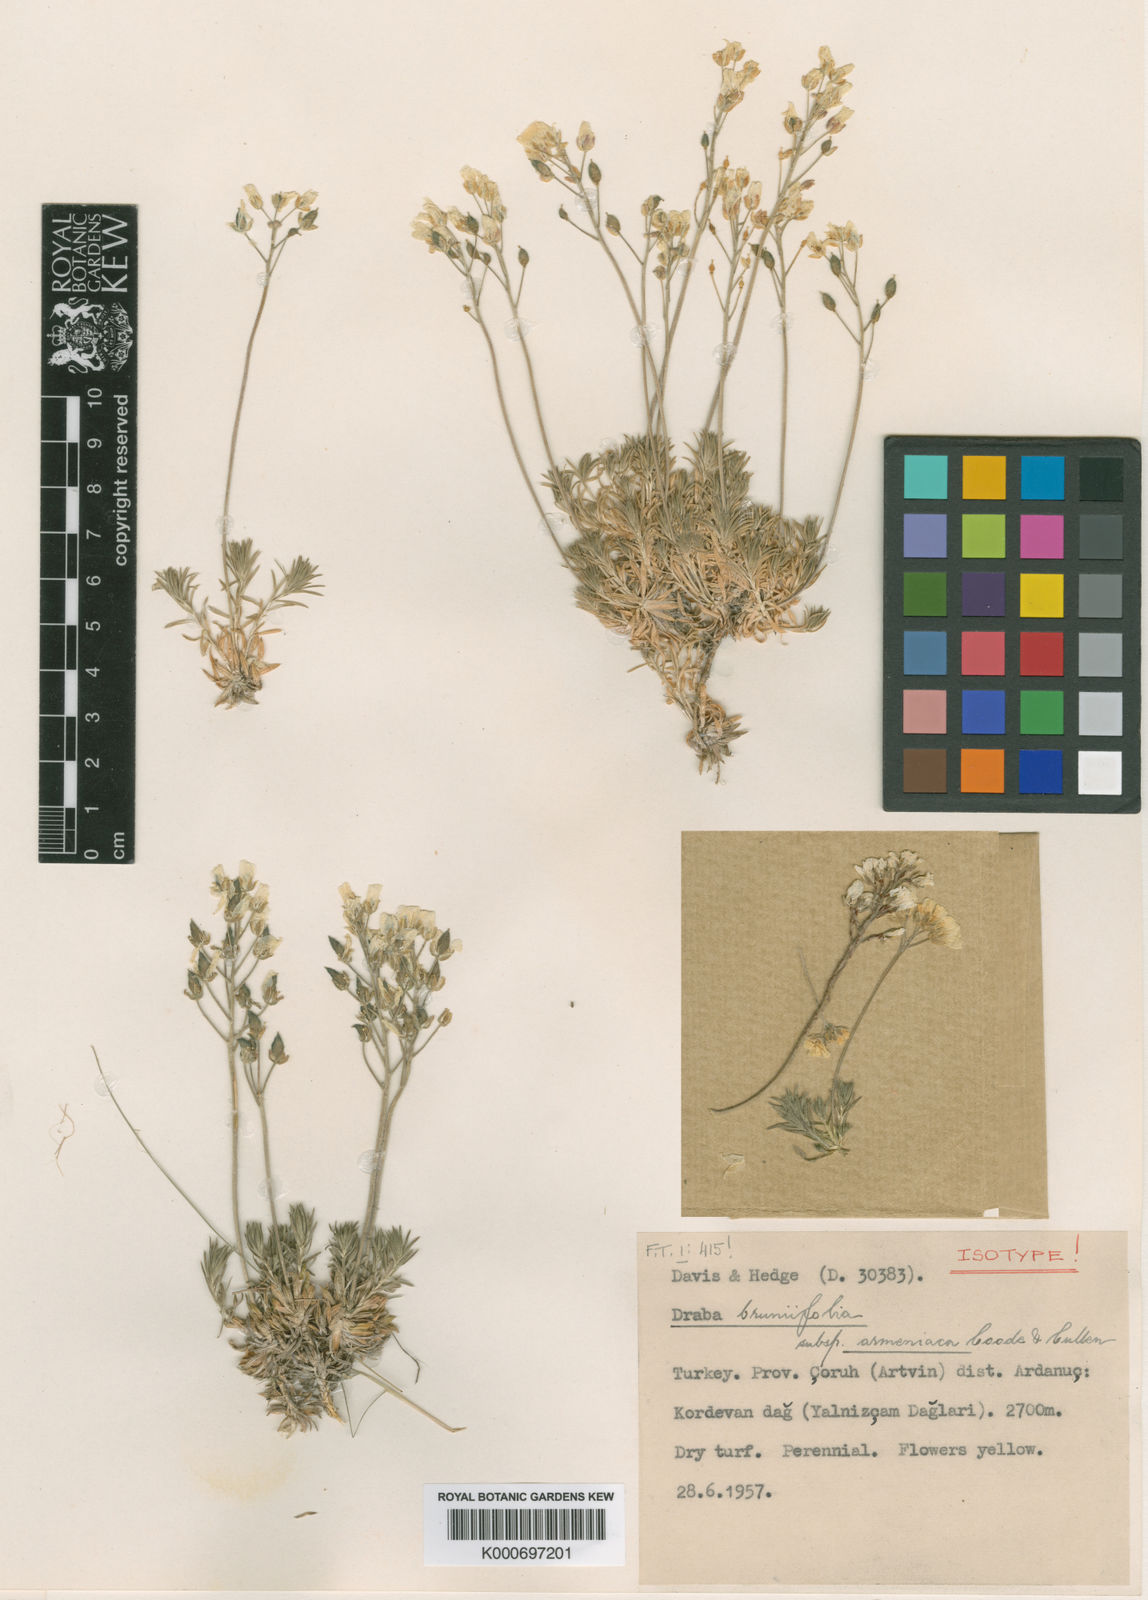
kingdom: Plantae
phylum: Tracheophyta
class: Magnoliopsida
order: Brassicales
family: Brassicaceae
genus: Draba
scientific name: Draba bruniifolia
